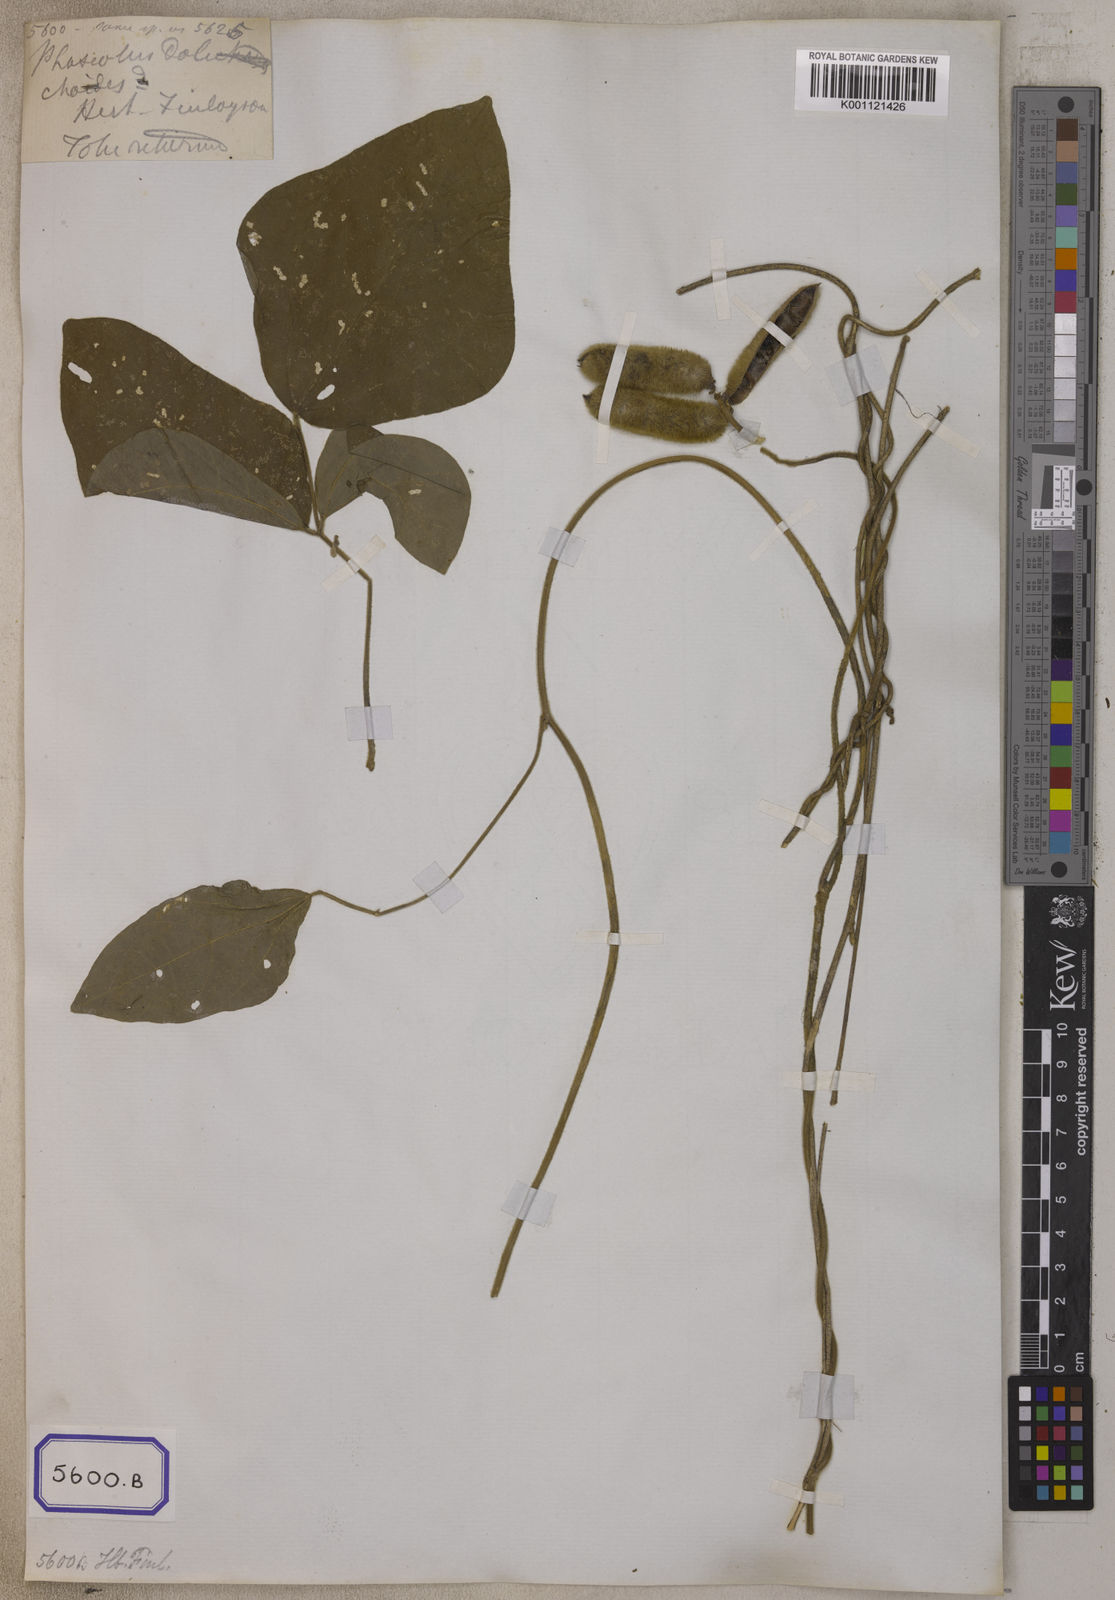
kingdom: Plantae
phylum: Tracheophyta
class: Magnoliopsida
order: Fabales
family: Fabaceae
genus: Dysolobium
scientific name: Dysolobium dolichoides
